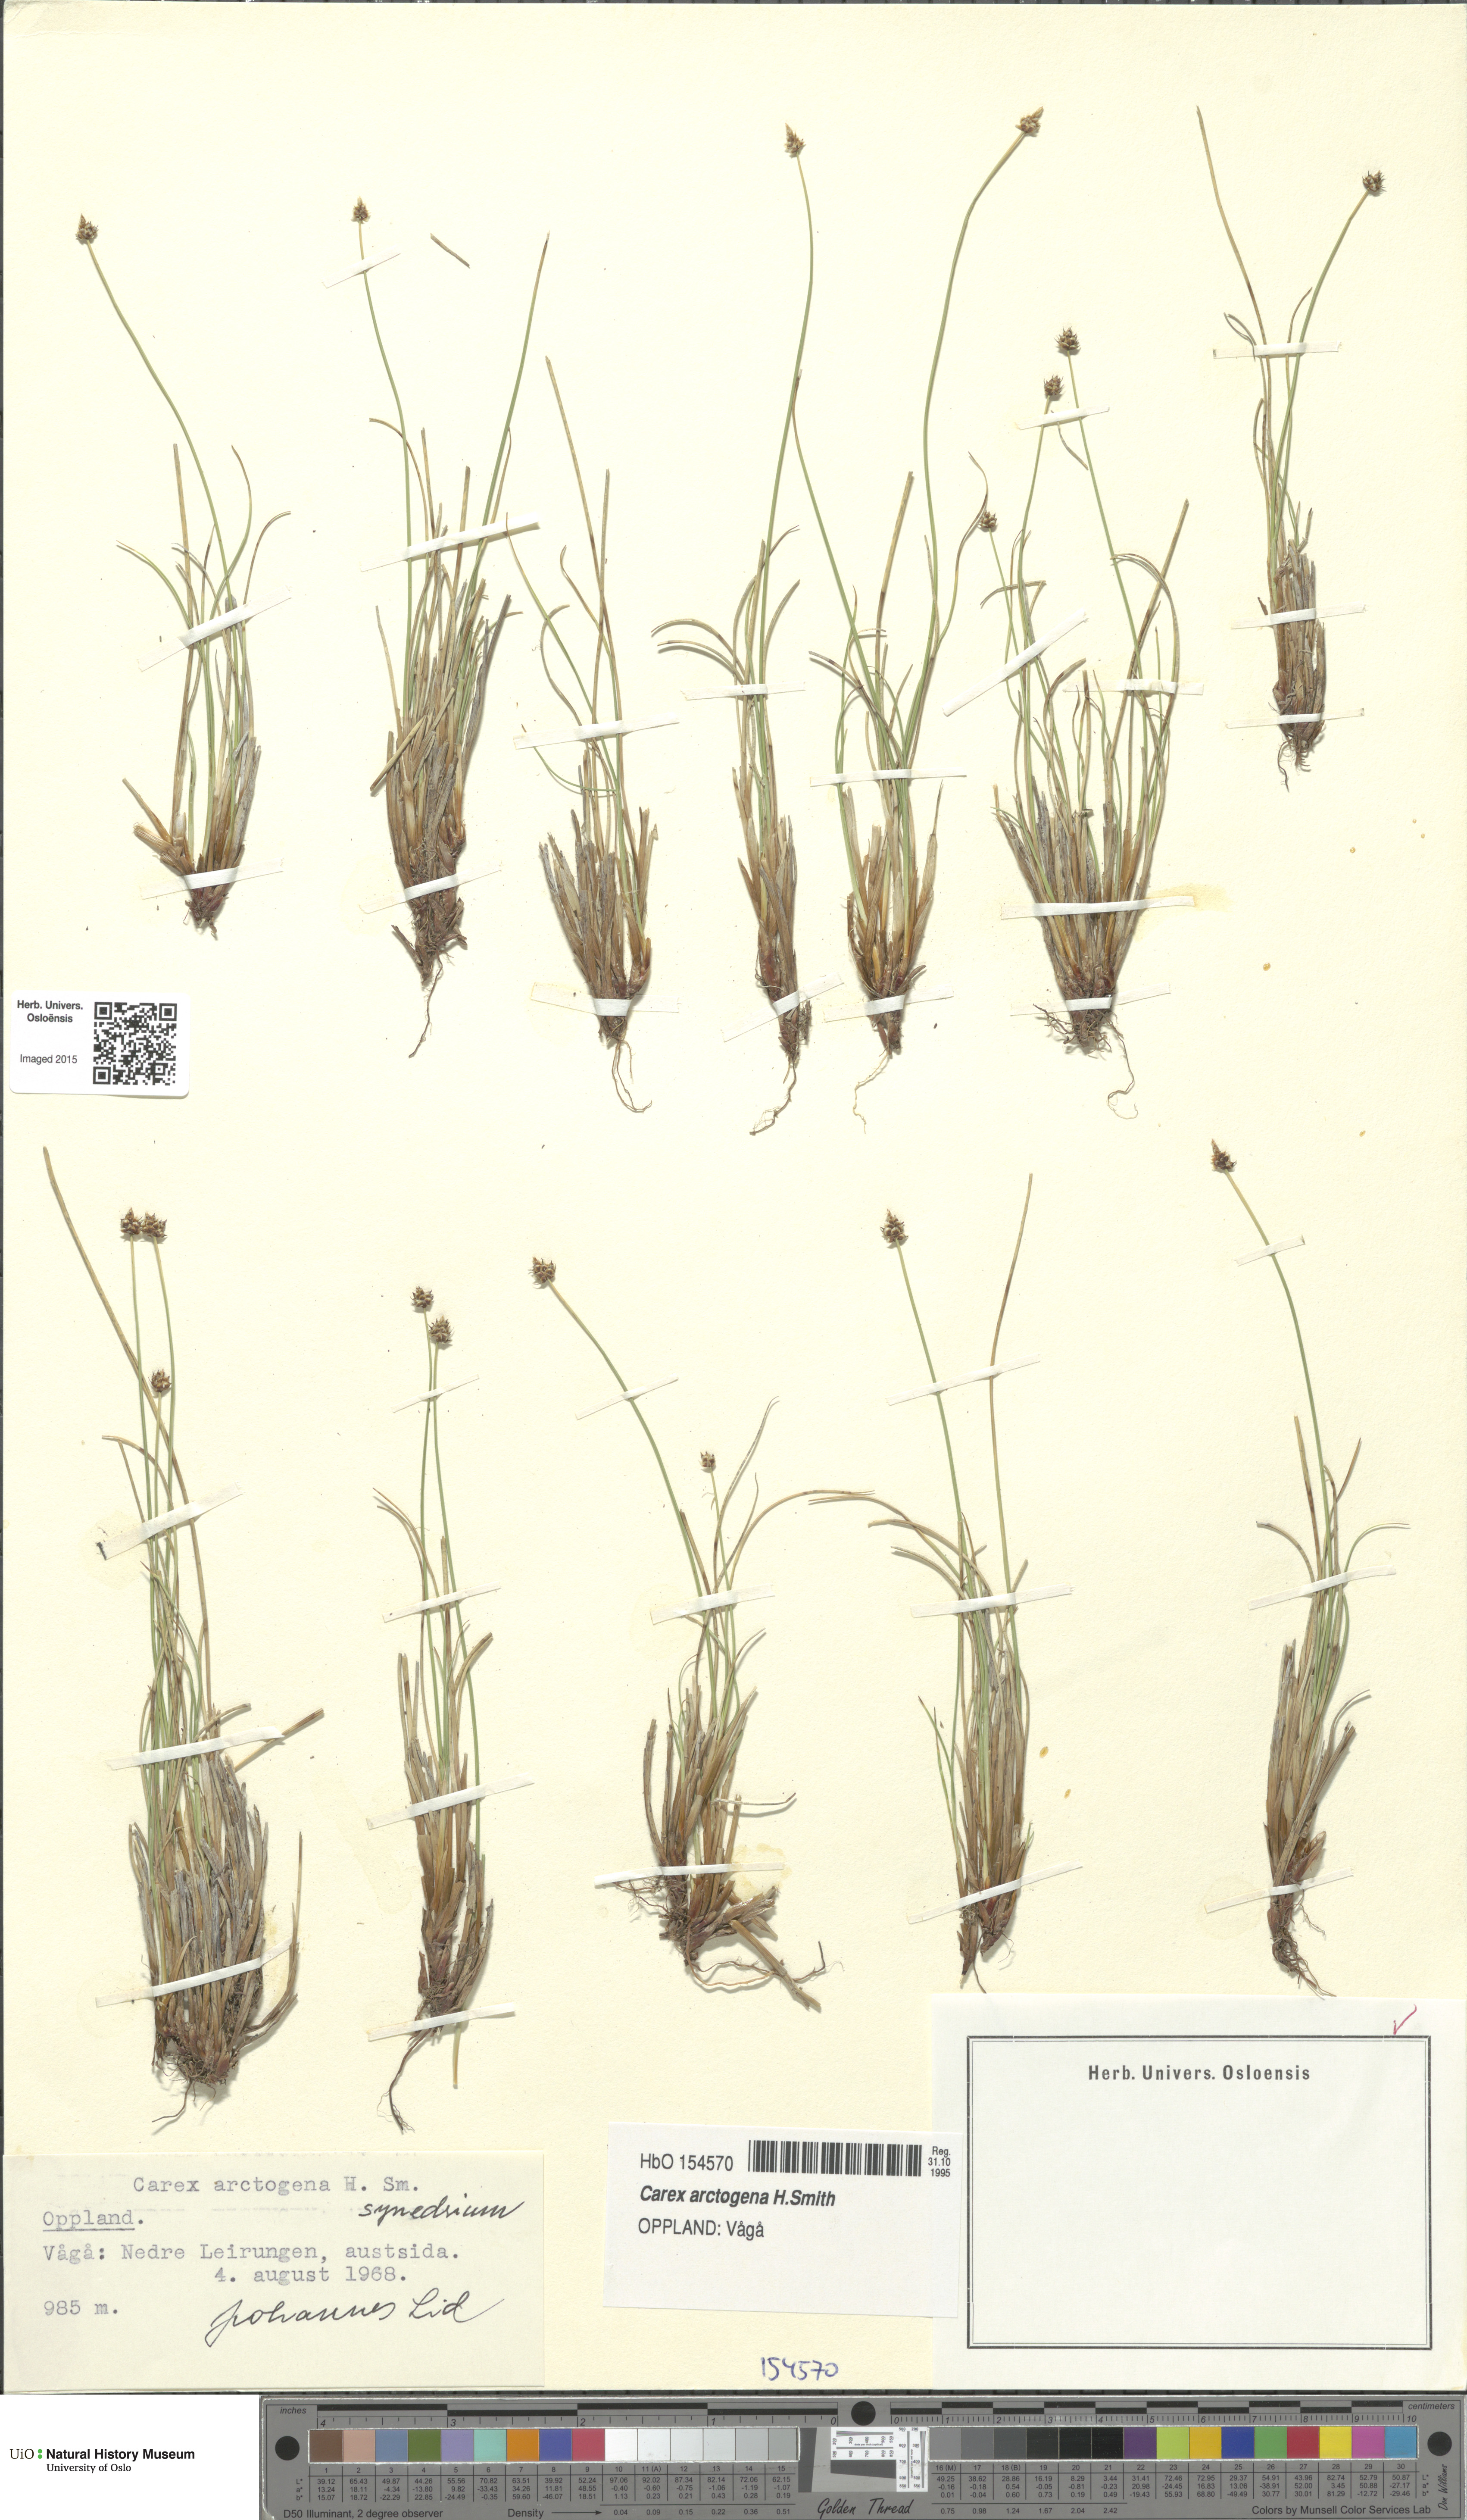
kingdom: Plantae
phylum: Tracheophyta
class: Liliopsida
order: Poales
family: Cyperaceae
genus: Carex
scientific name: Carex arctogena
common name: Black sedge
